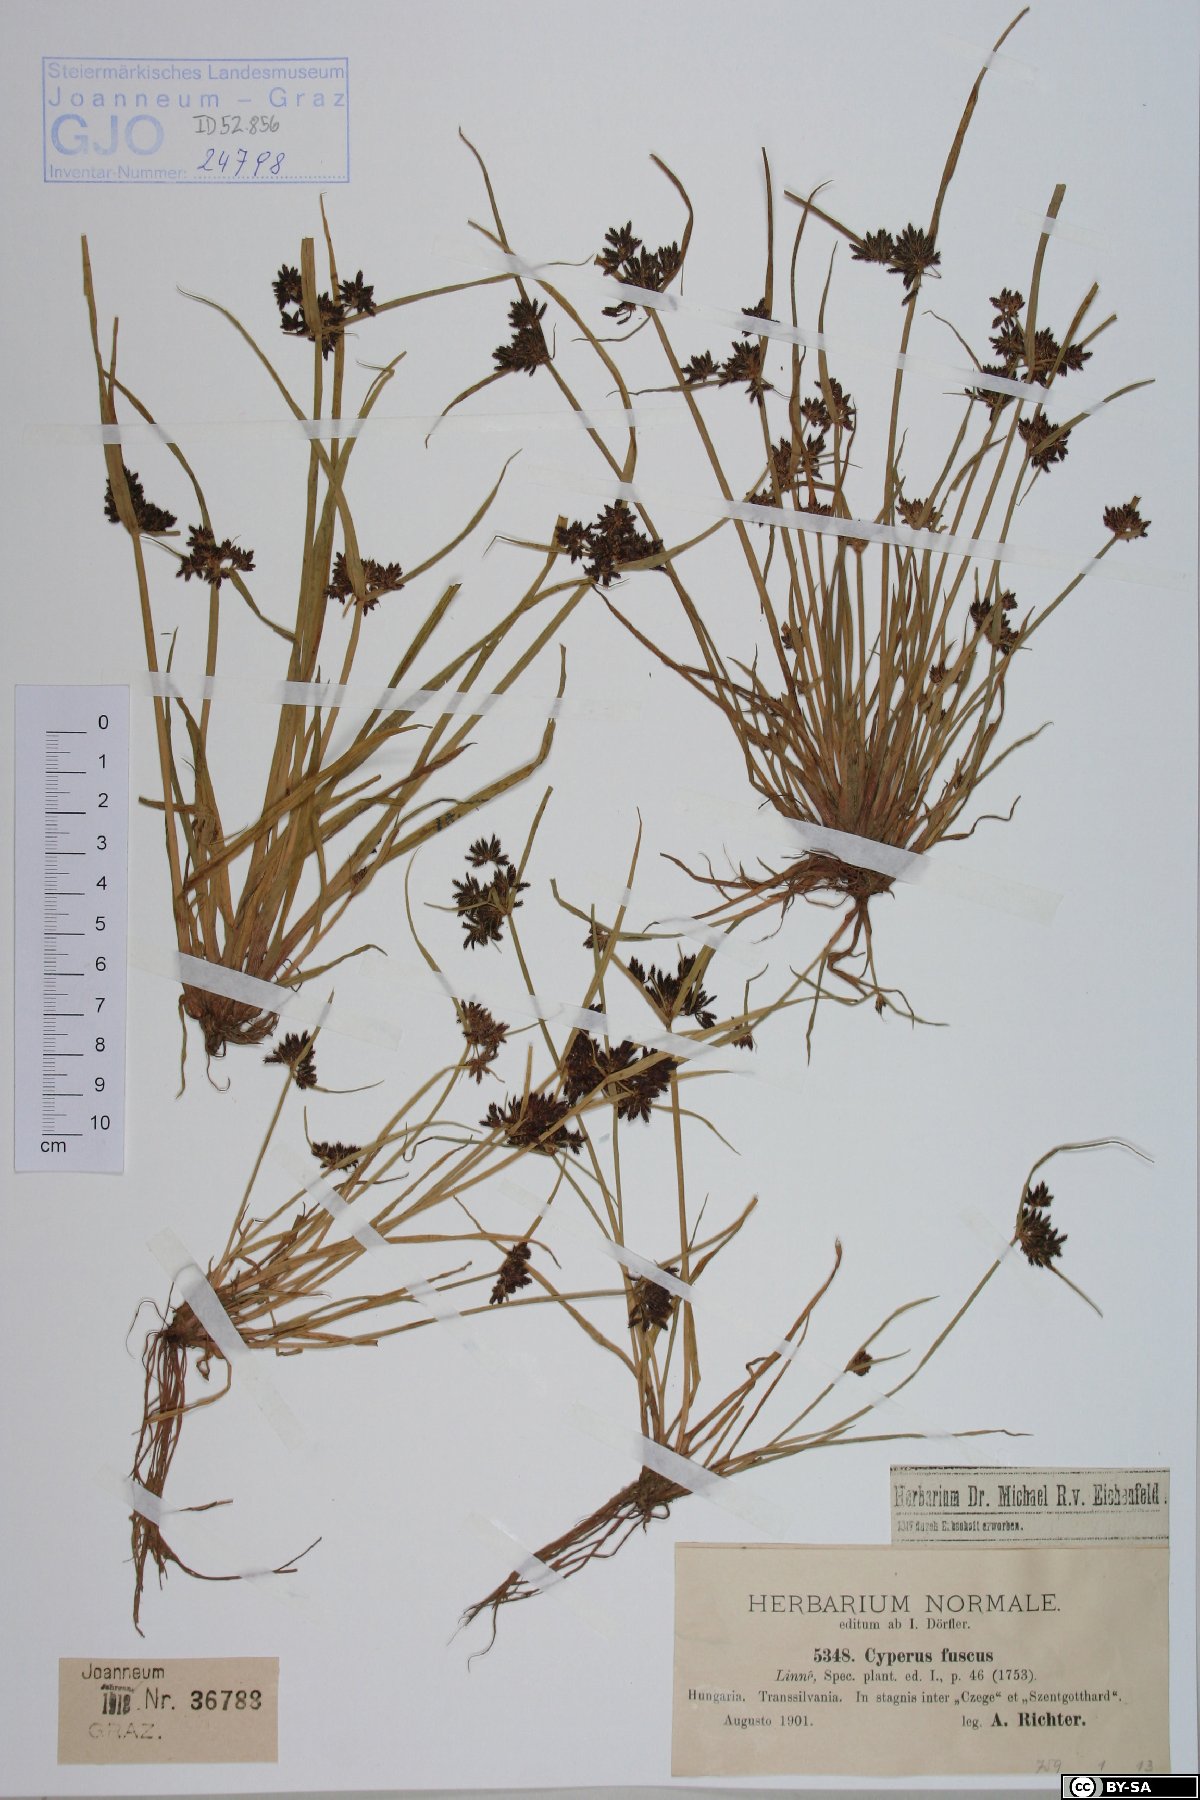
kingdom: Plantae
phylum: Tracheophyta
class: Liliopsida
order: Poales
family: Cyperaceae
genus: Cyperus
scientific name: Cyperus fuscus
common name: Brown galingale
